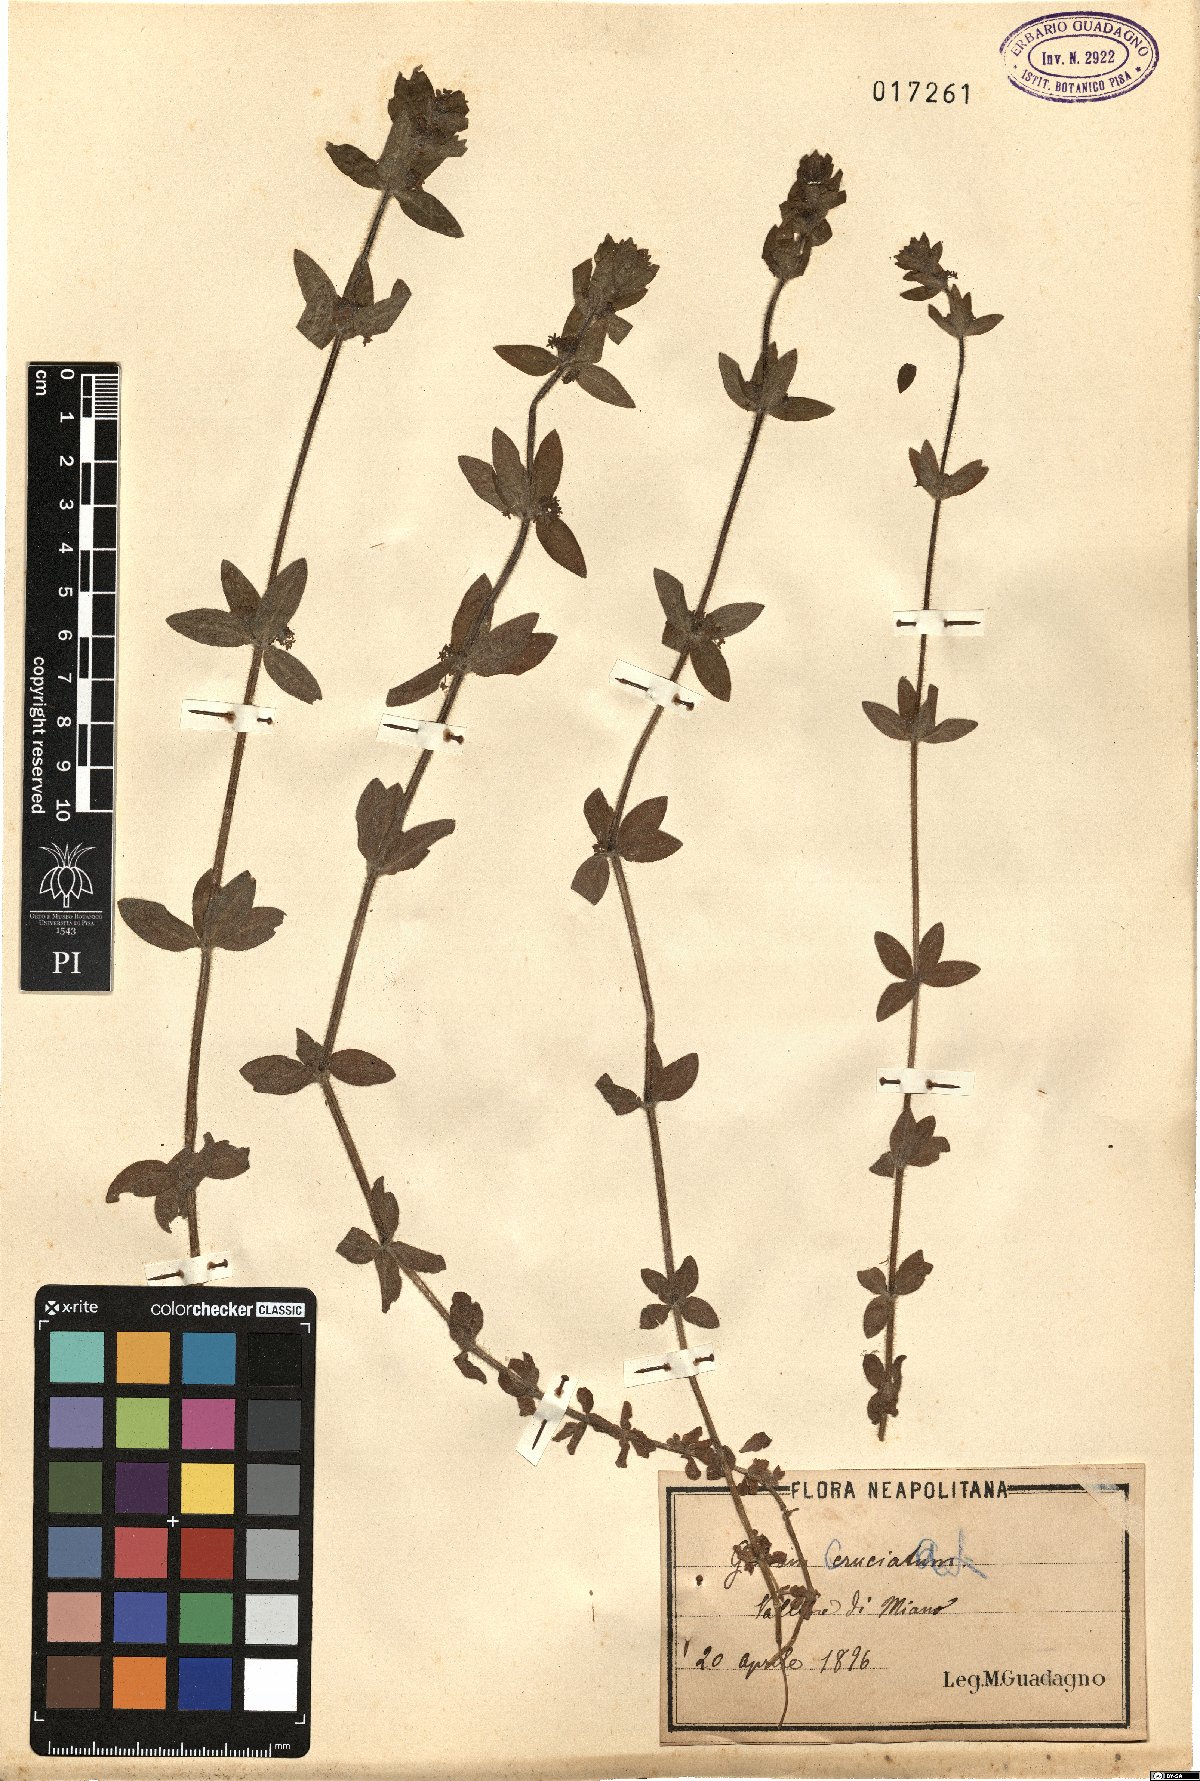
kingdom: Plantae
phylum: Tracheophyta
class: Magnoliopsida
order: Gentianales
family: Rubiaceae
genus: Cruciata
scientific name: Cruciata laevipes
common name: Crosswort
